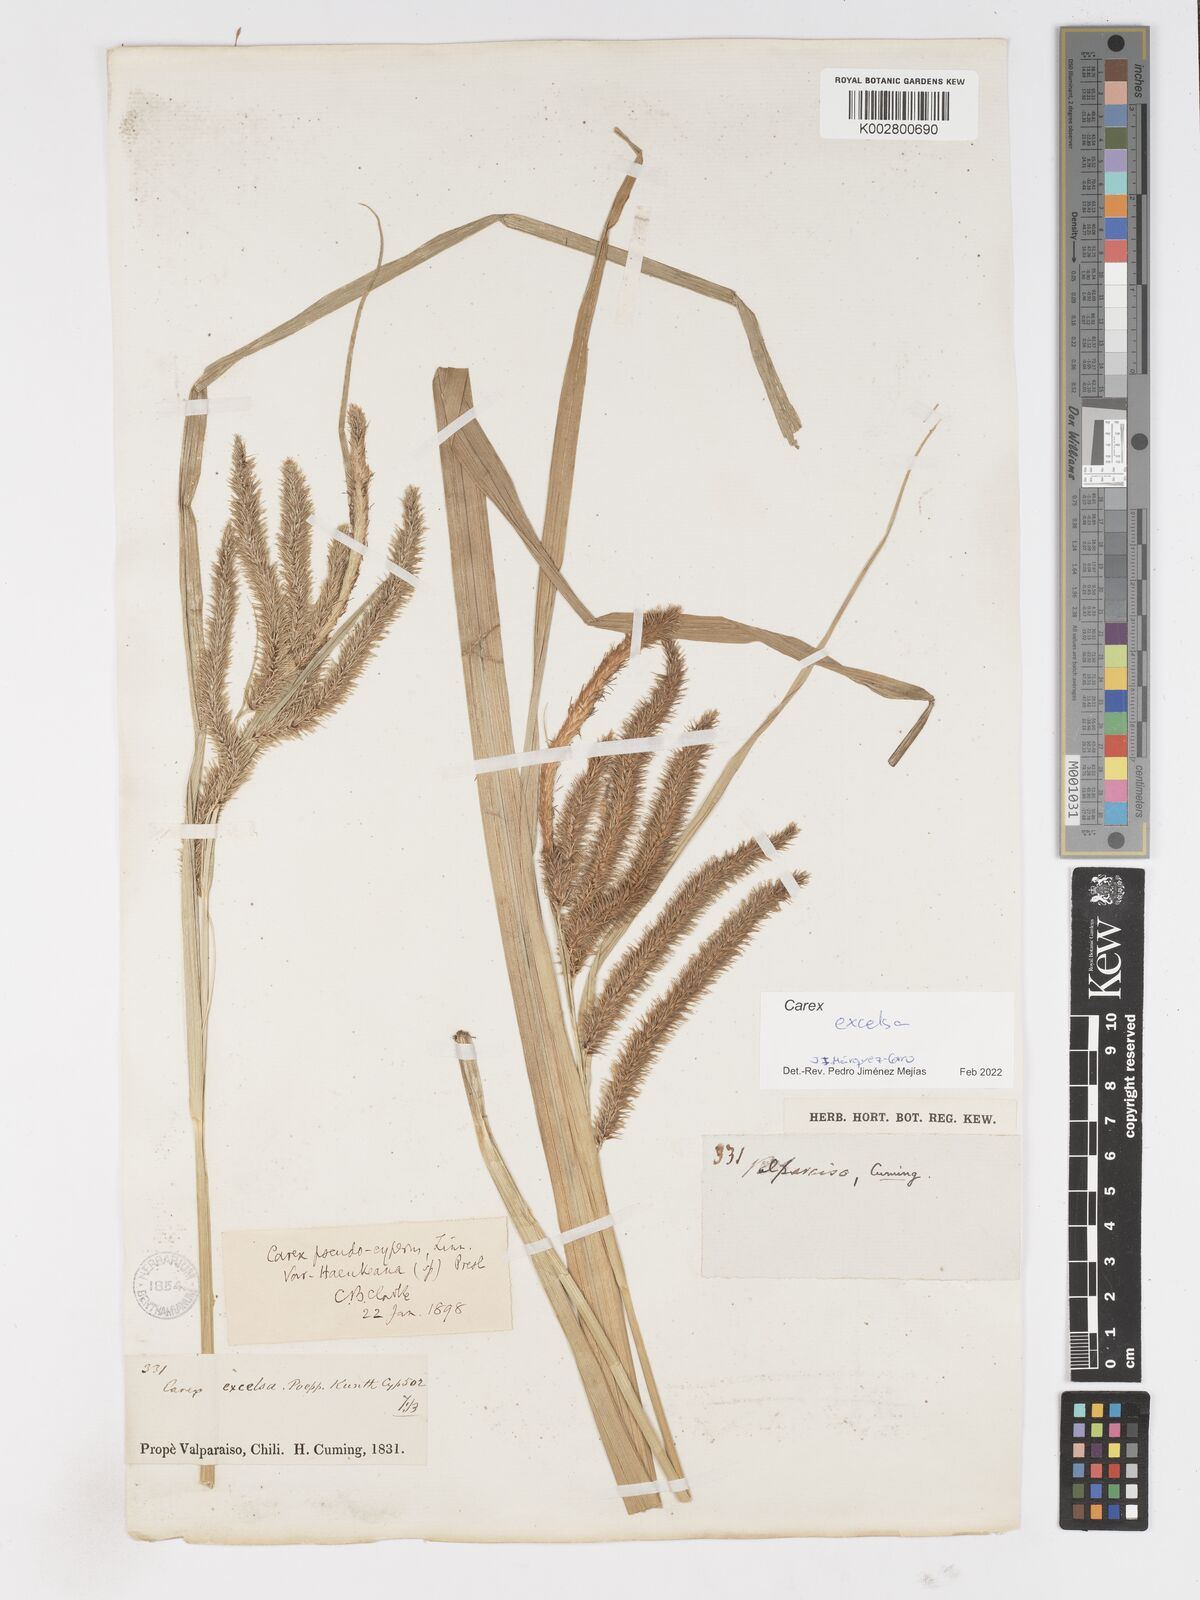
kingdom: Plantae
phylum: Tracheophyta
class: Liliopsida
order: Poales
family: Cyperaceae
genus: Carex
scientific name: Carex excelsa
